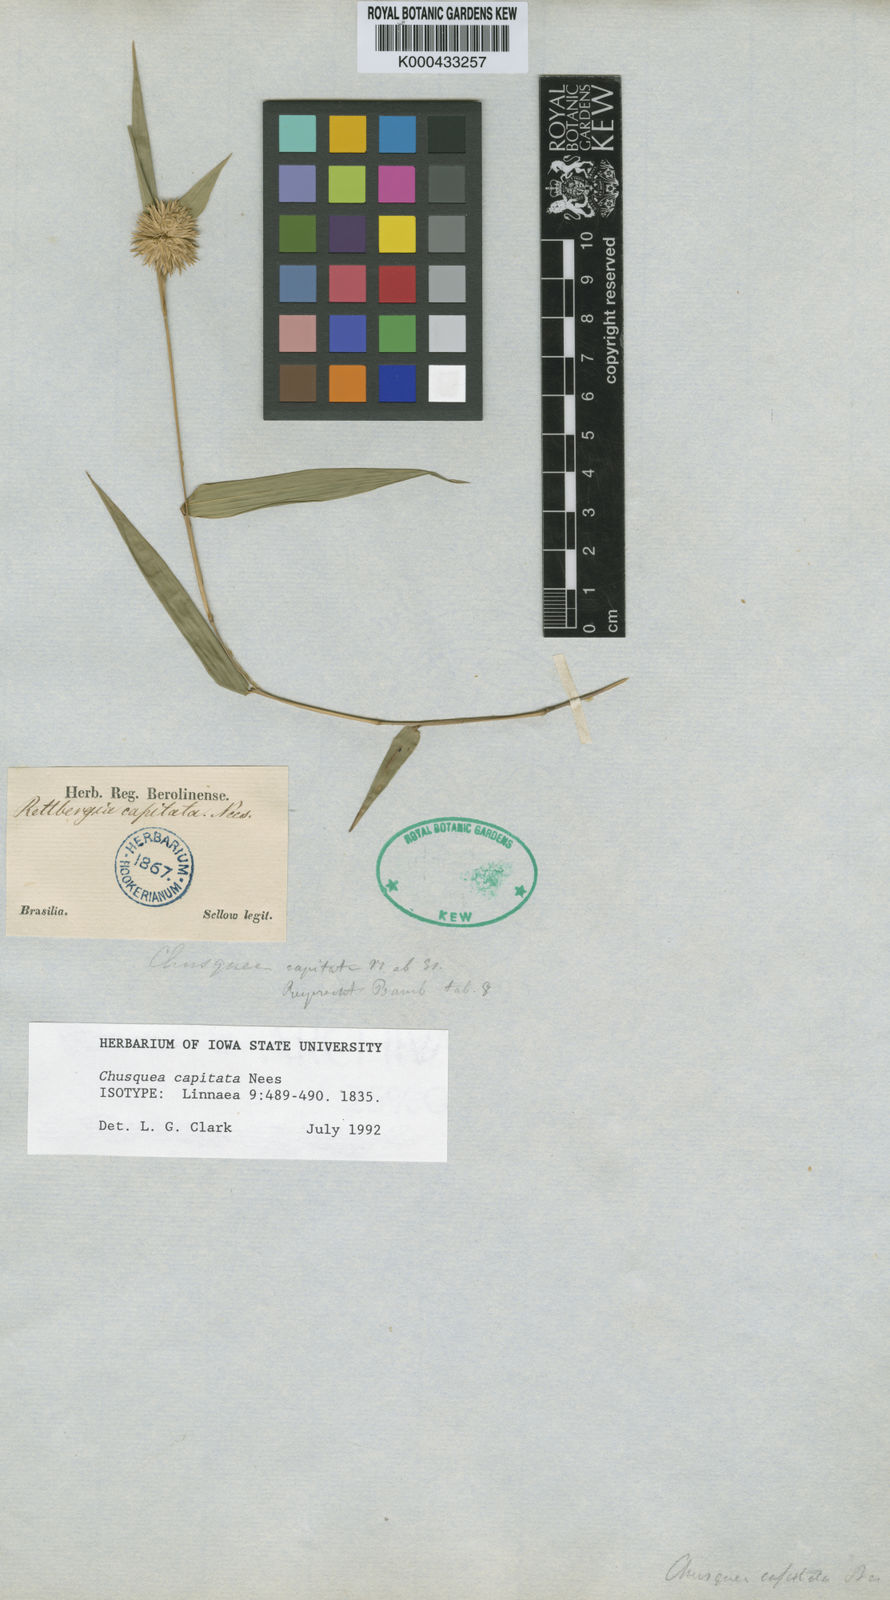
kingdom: Plantae
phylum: Tracheophyta
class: Liliopsida
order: Poales
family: Poaceae
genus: Chusquea
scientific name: Chusquea capitata
